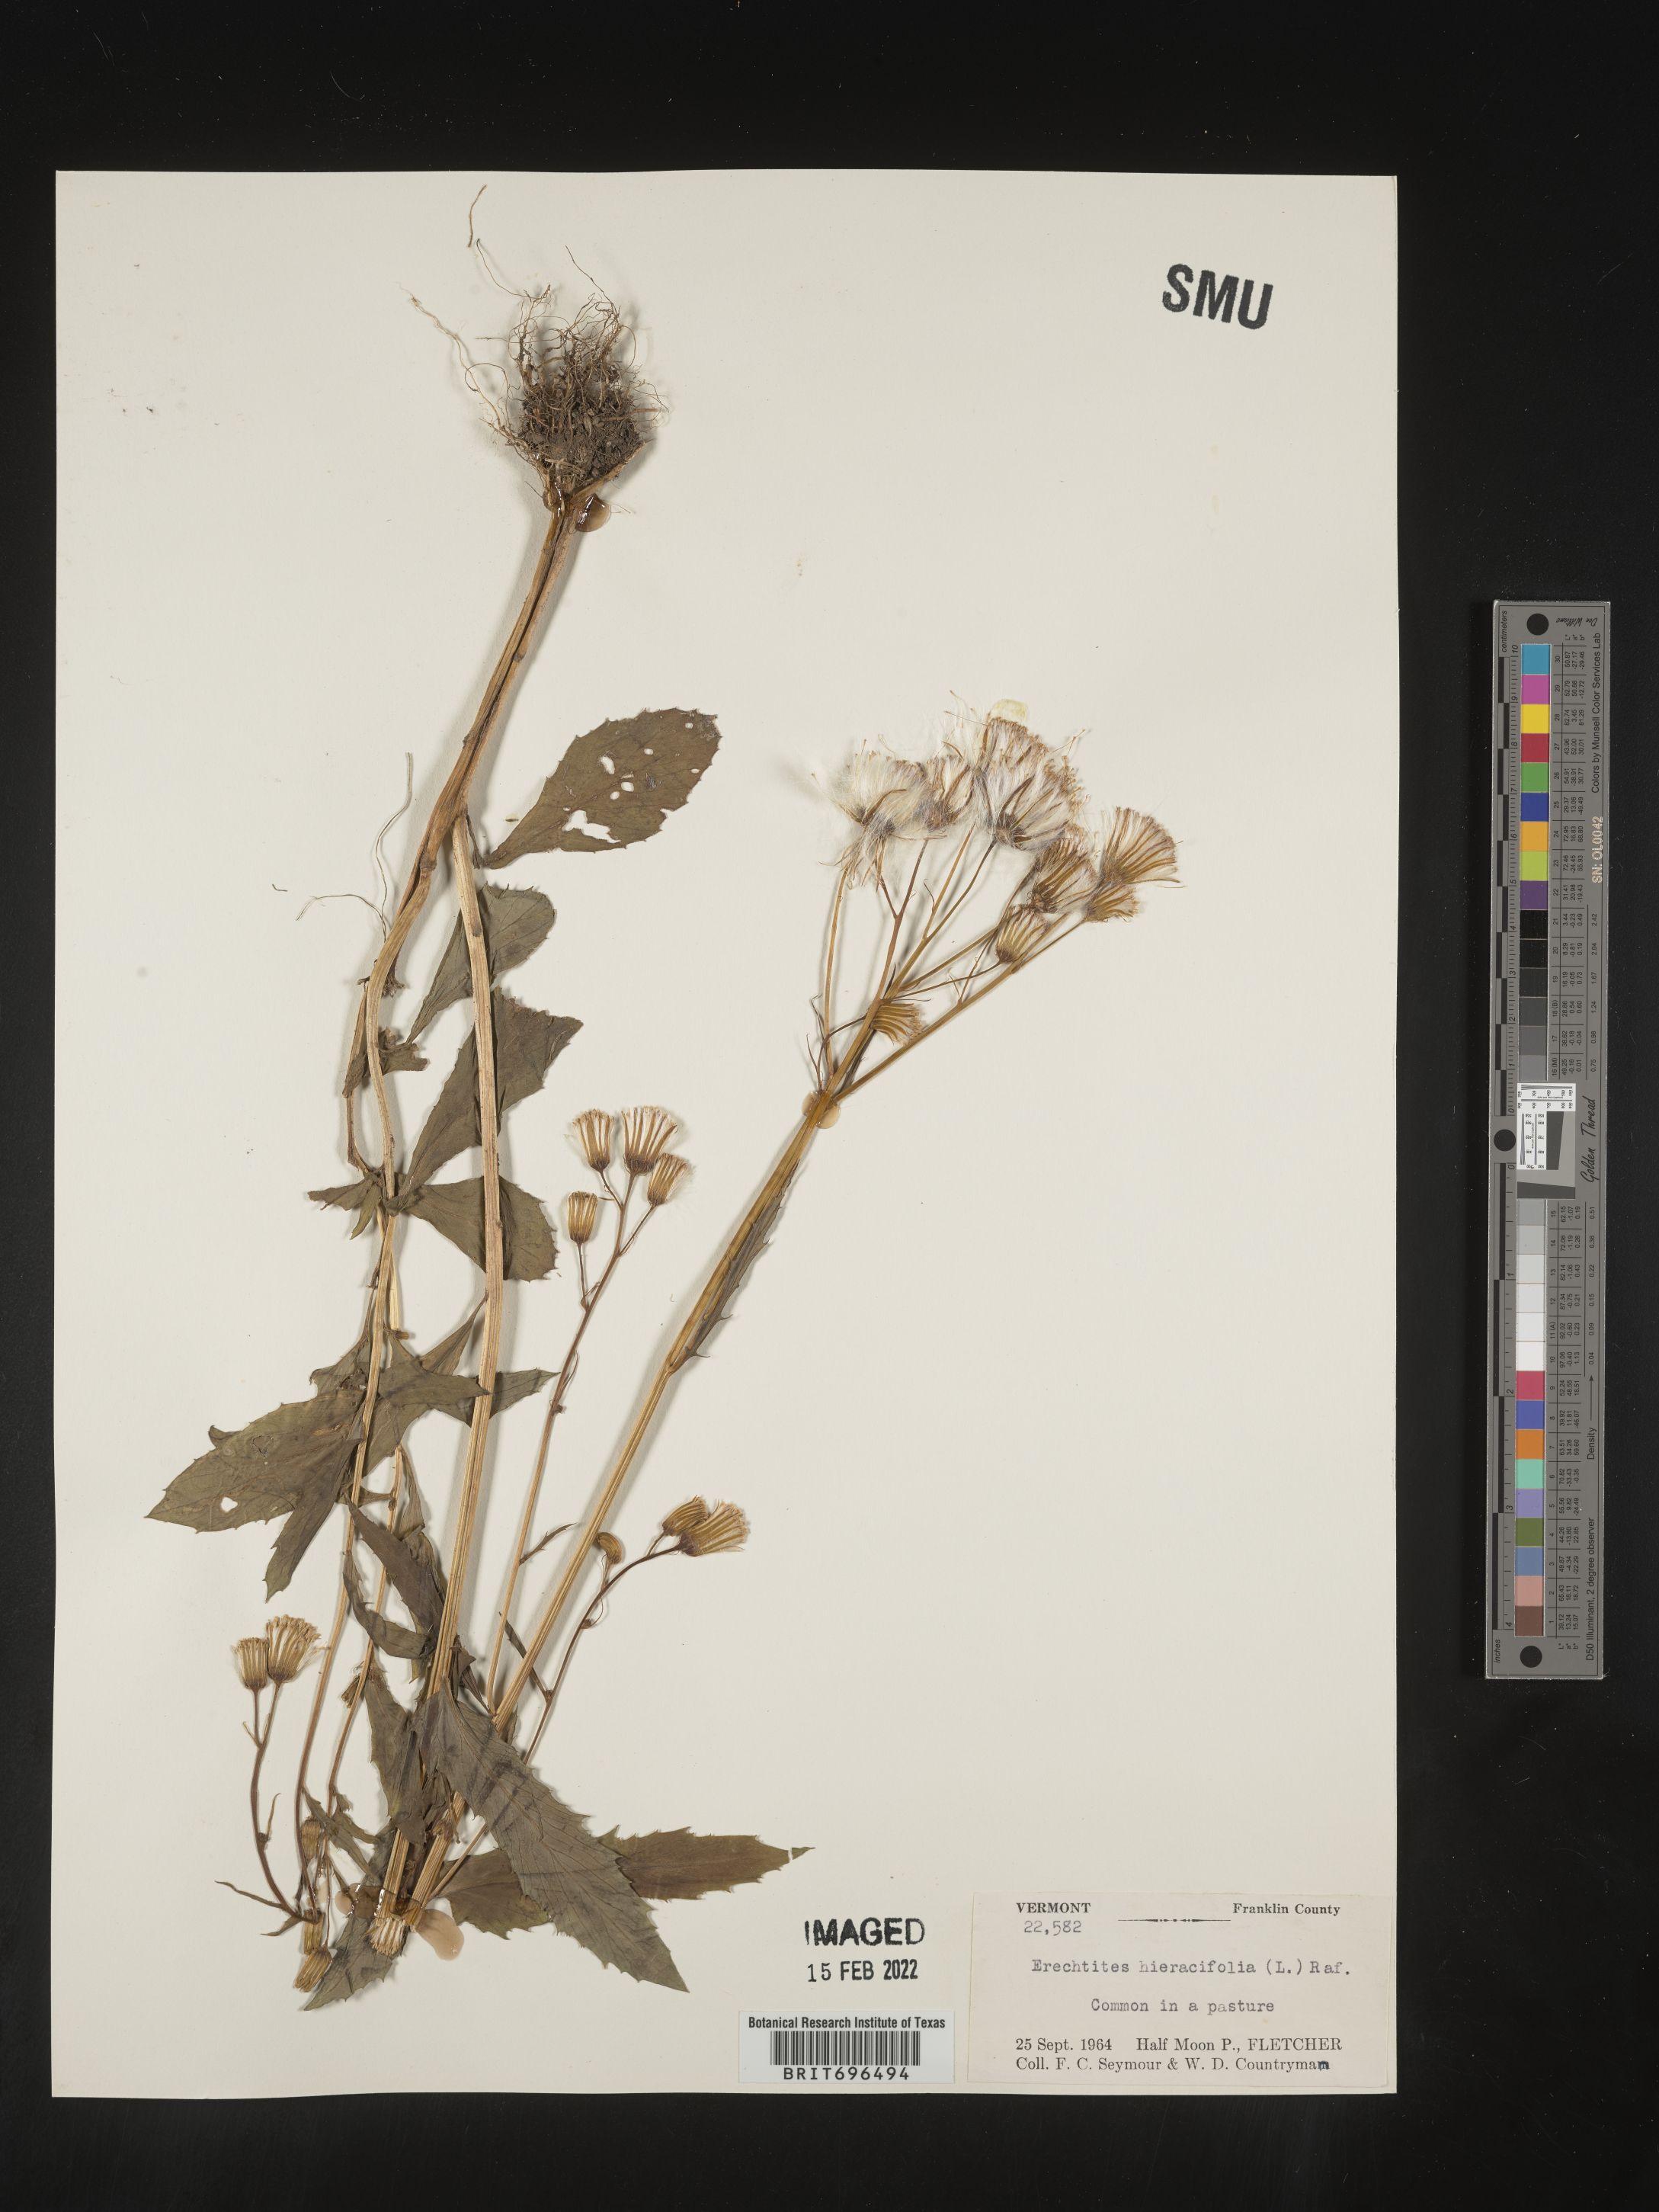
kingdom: Plantae
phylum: Tracheophyta
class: Magnoliopsida
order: Asterales
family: Asteraceae
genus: Erechtites
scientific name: Erechtites hieraciifolius
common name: American burnweed
